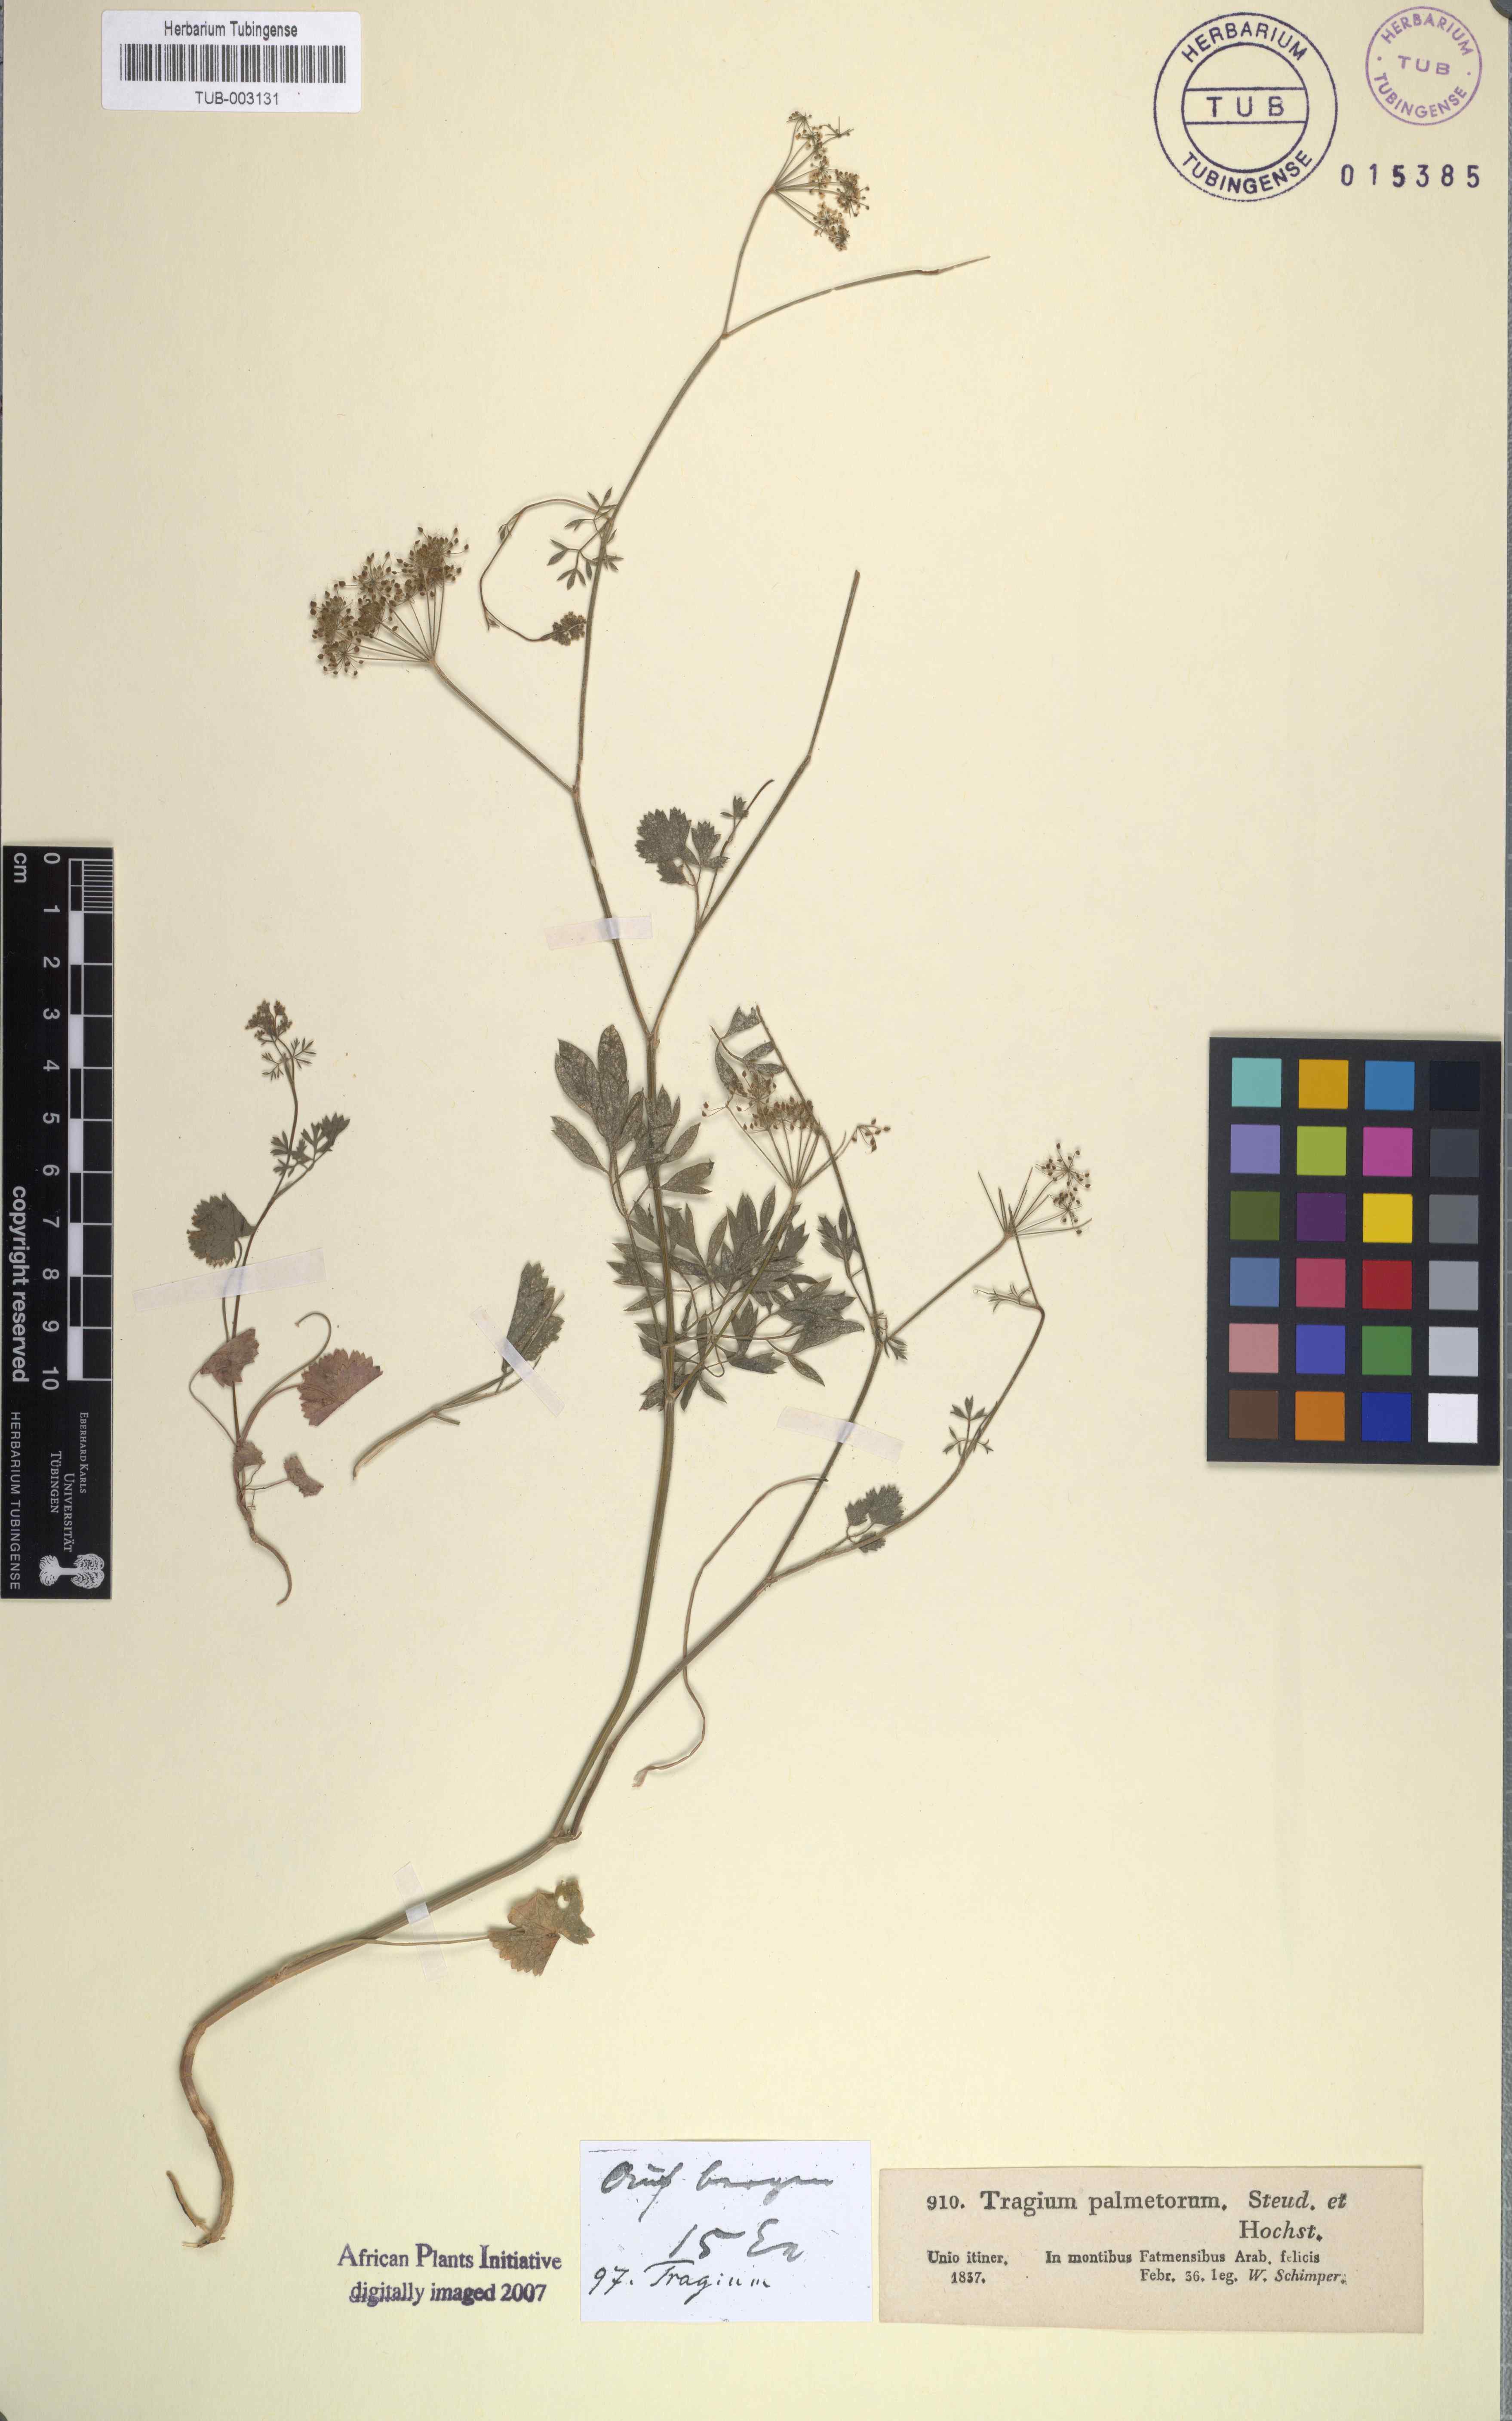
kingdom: Plantae
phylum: Tracheophyta
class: Magnoliopsida
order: Apiales
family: Apiaceae
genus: Pimpinella
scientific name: Pimpinella anisum
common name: Anise burnet saxifrage
